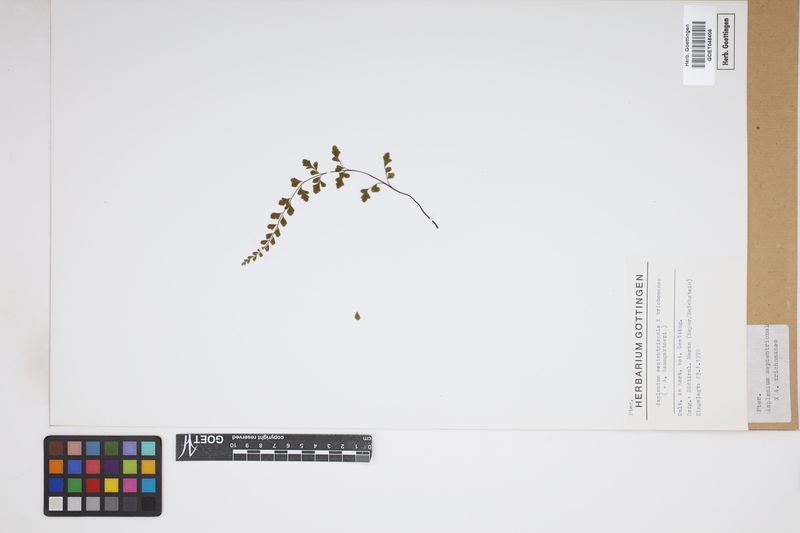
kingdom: Plantae
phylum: Tracheophyta
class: Polypodiopsida
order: Polypodiales
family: Aspleniaceae
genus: Asplenium
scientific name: Asplenium
